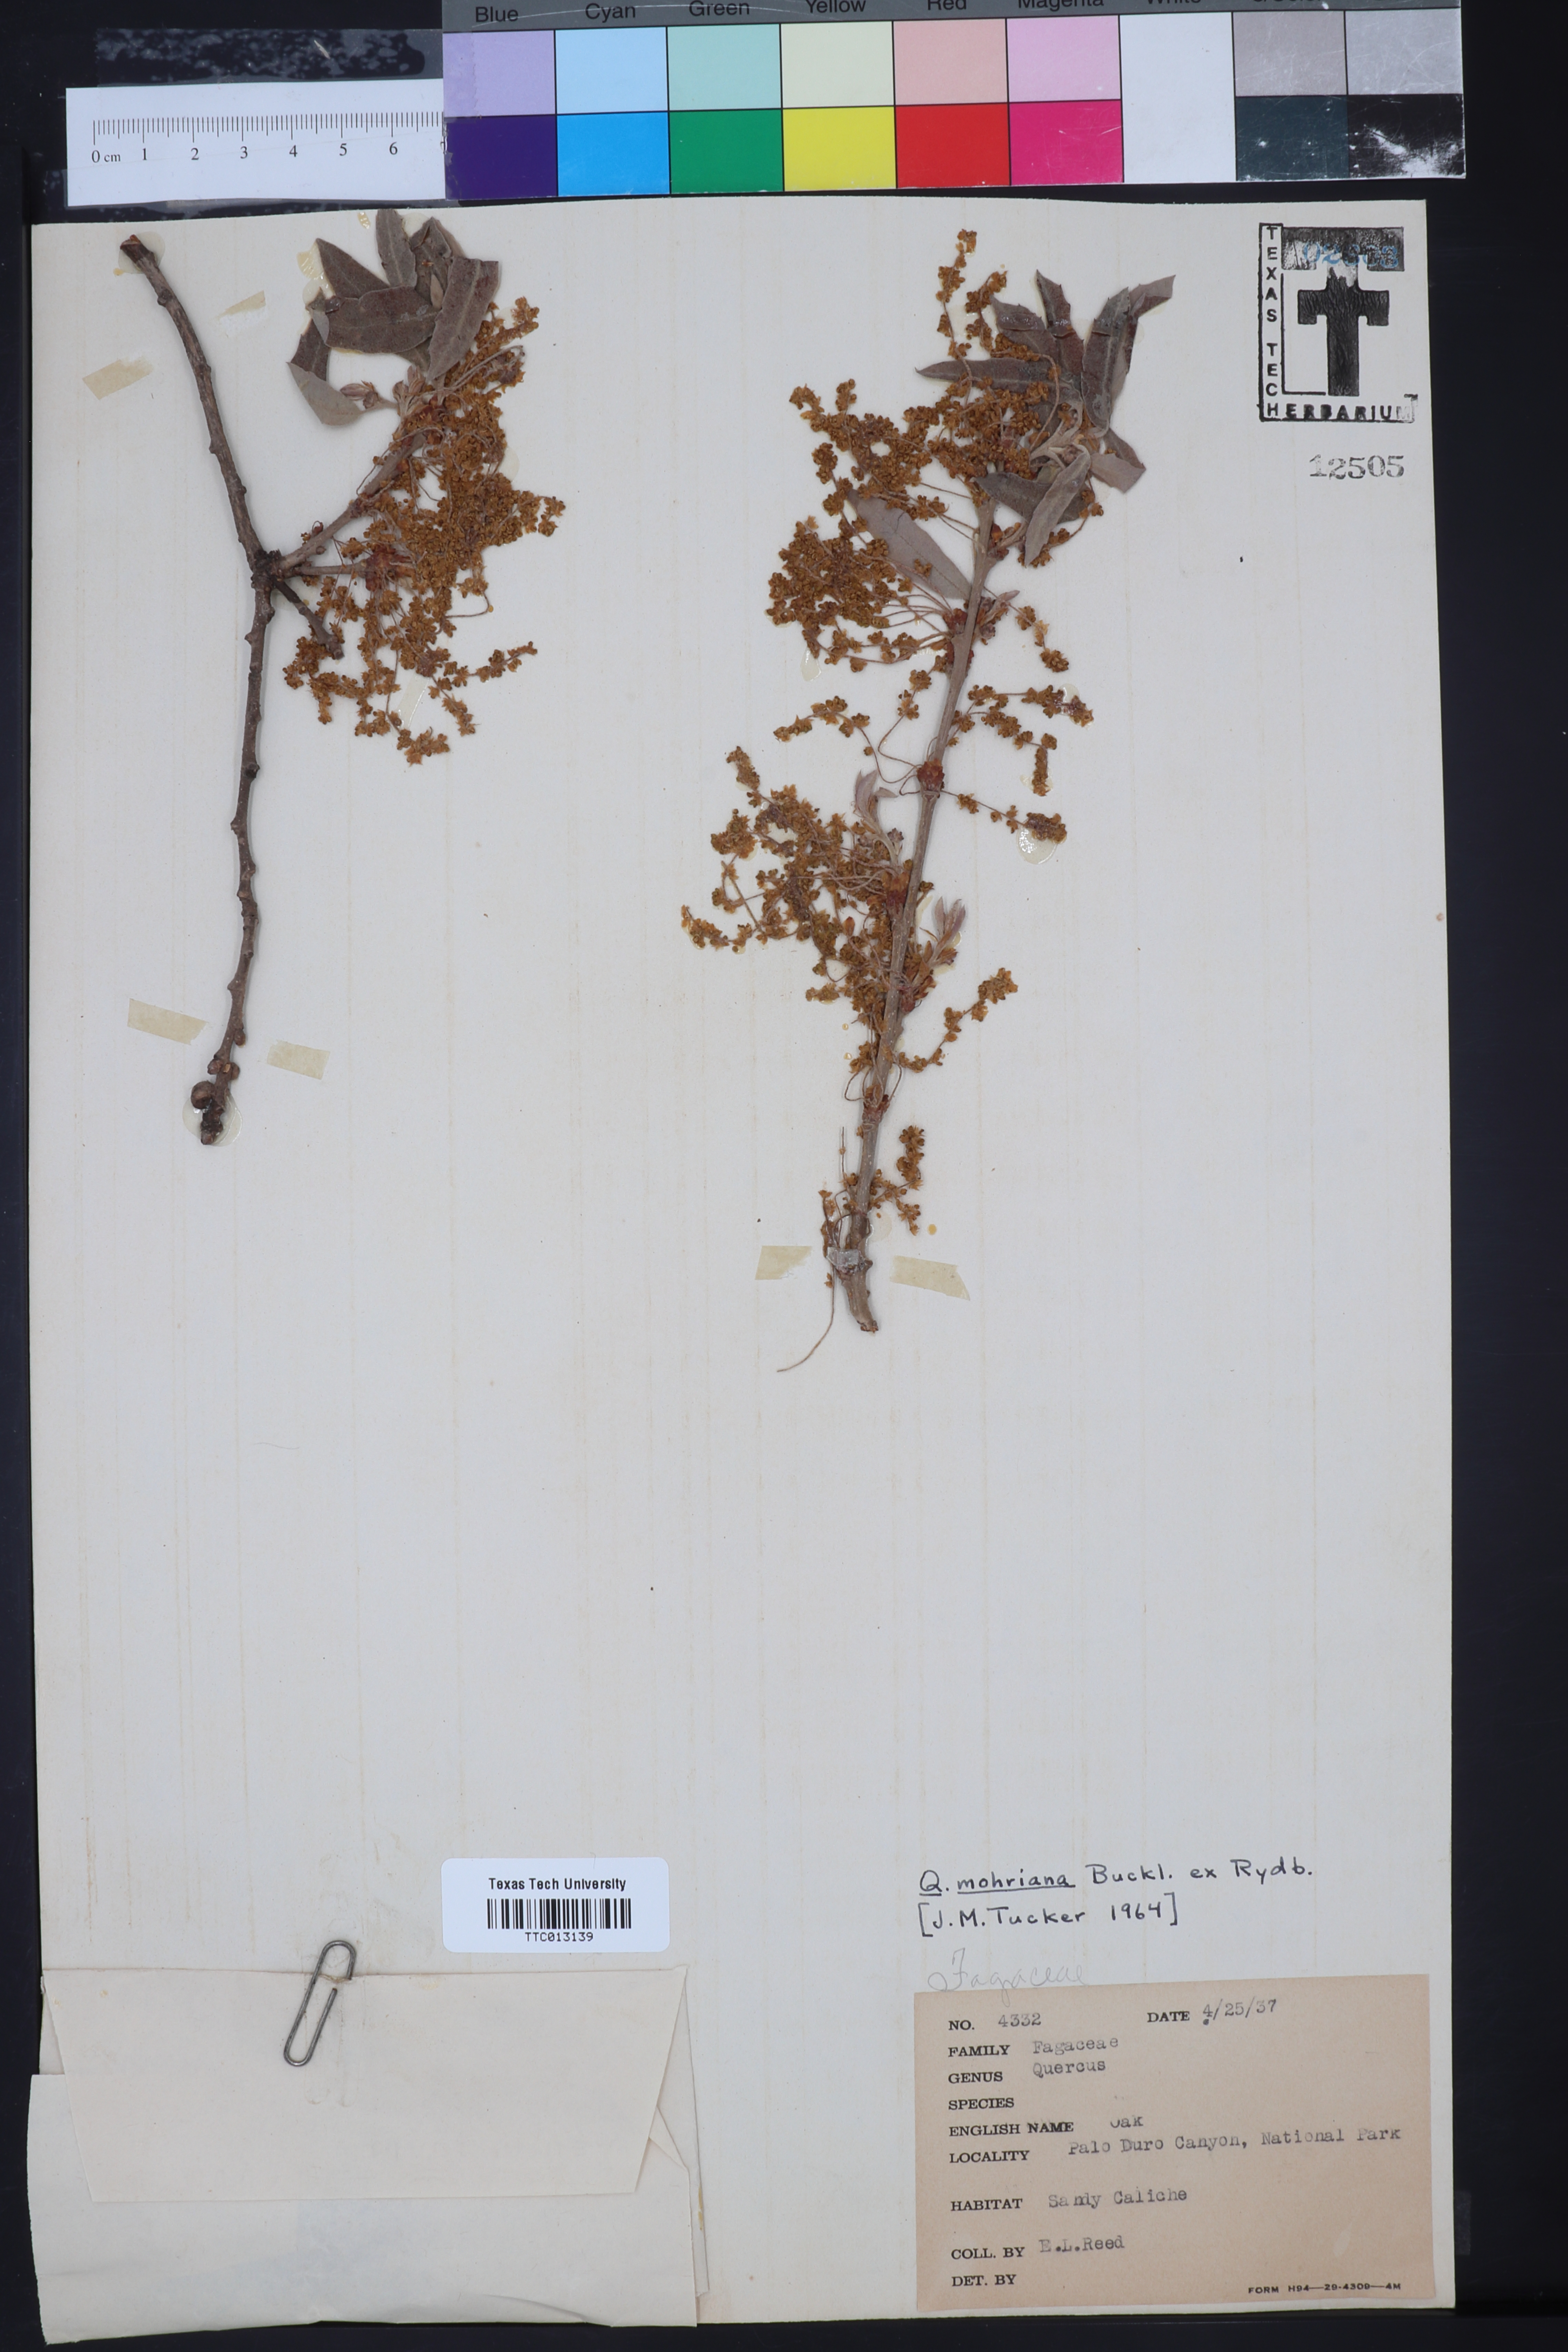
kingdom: Plantae
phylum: Tracheophyta
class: Magnoliopsida
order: Fagales
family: Fagaceae
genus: Quercus
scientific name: Quercus mohriana
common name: Mohr oak
